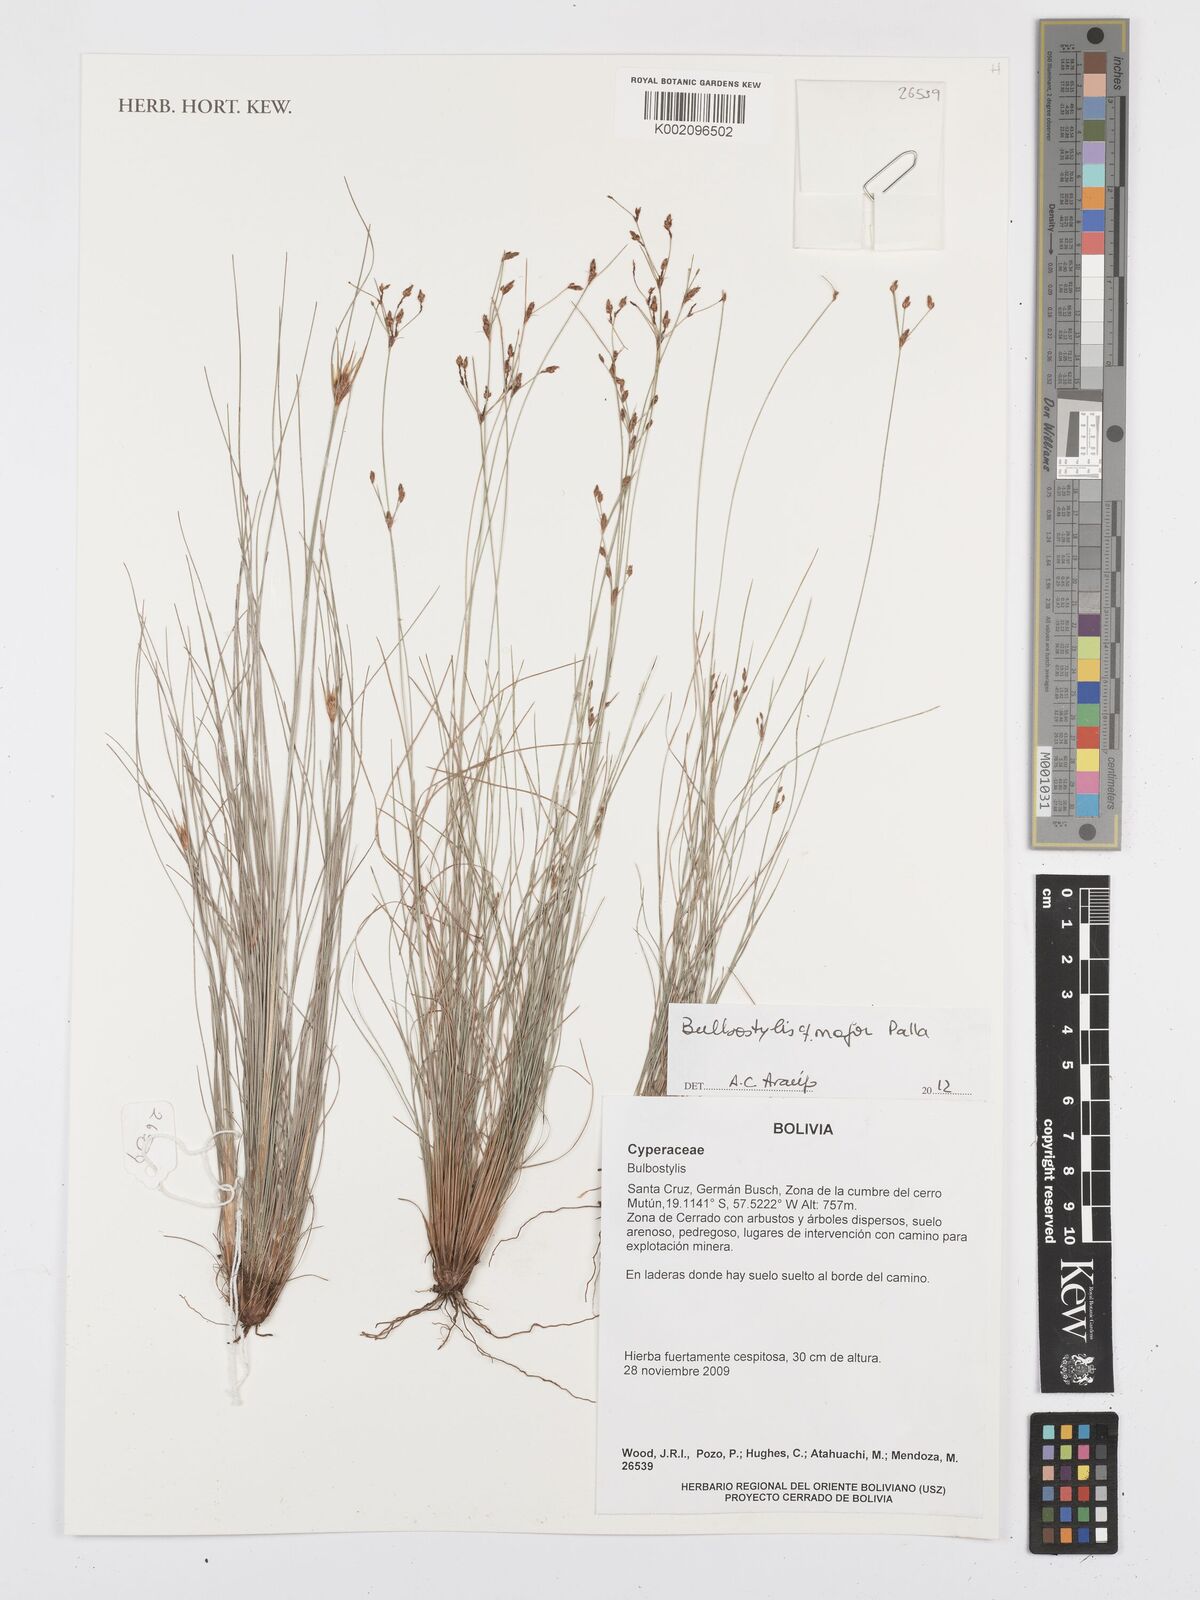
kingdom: Plantae
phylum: Tracheophyta
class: Liliopsida
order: Poales
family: Cyperaceae
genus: Bulbostylis
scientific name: Bulbostylis major
